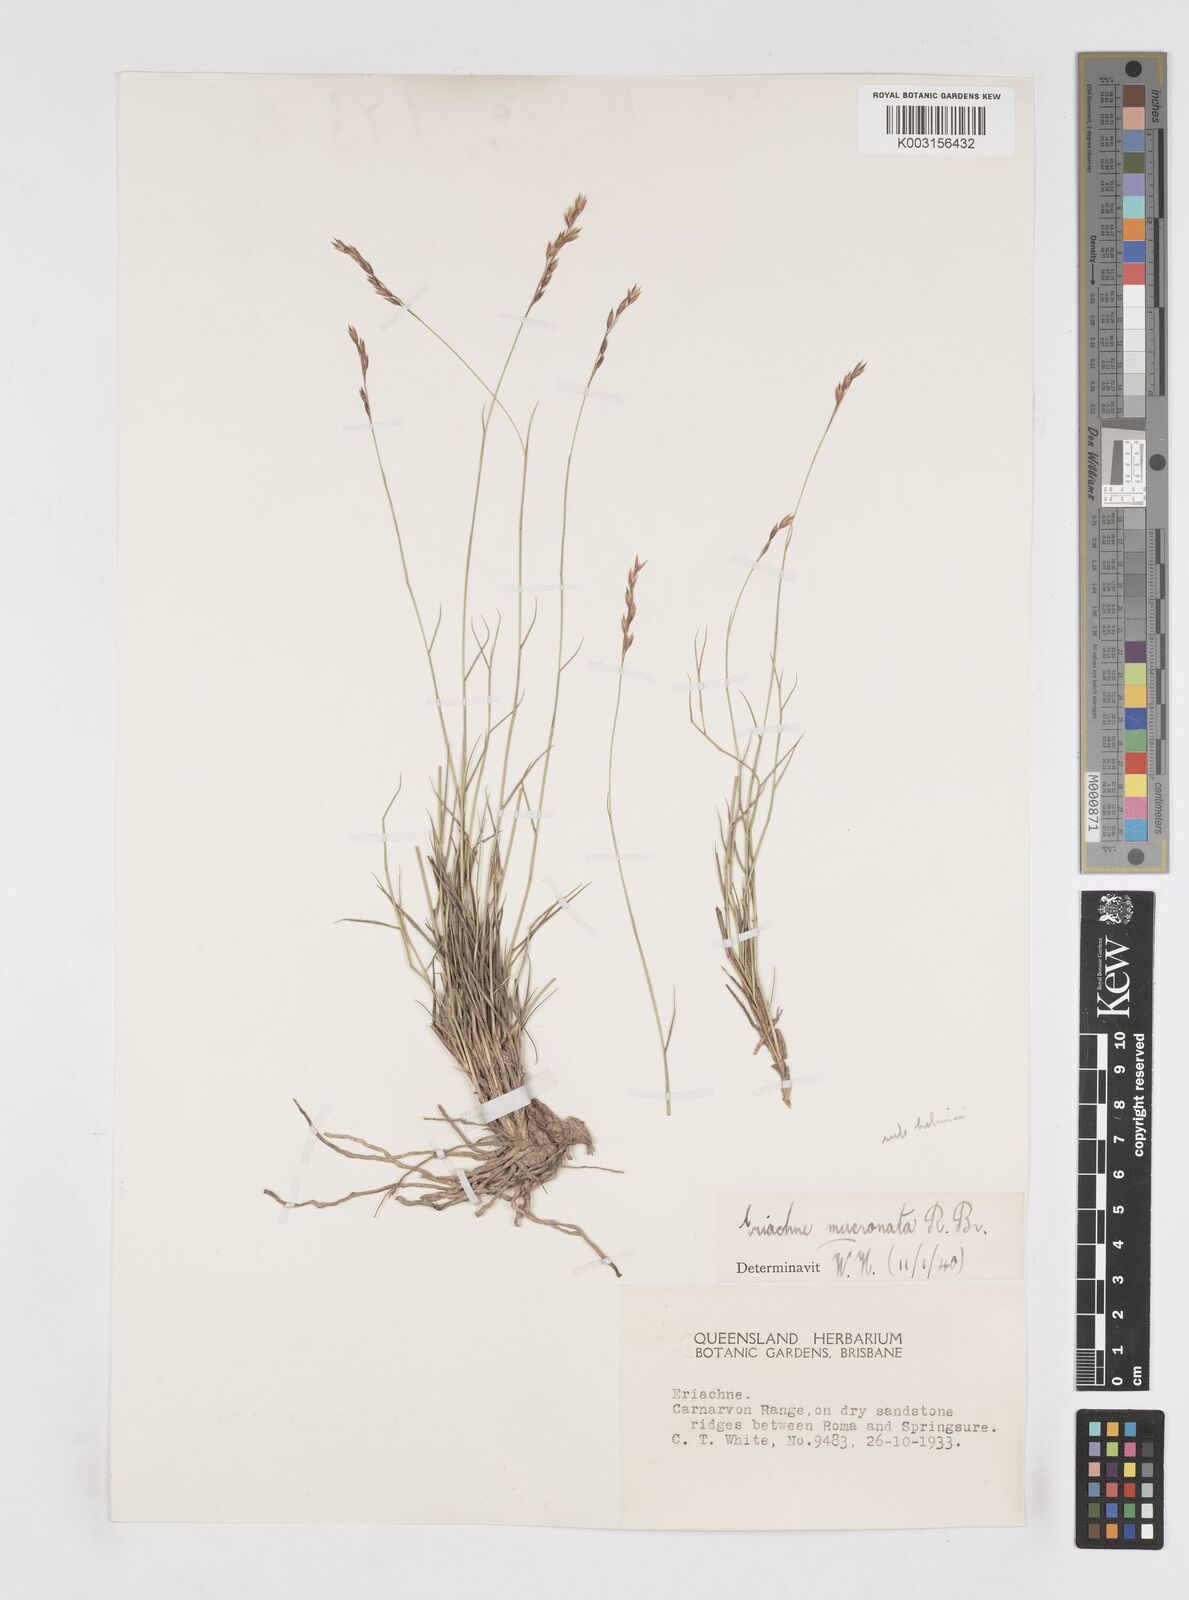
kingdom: Plantae
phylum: Tracheophyta
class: Liliopsida
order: Poales
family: Poaceae
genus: Eriachne
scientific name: Eriachne mucronata
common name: Mountain wanderrie grass
